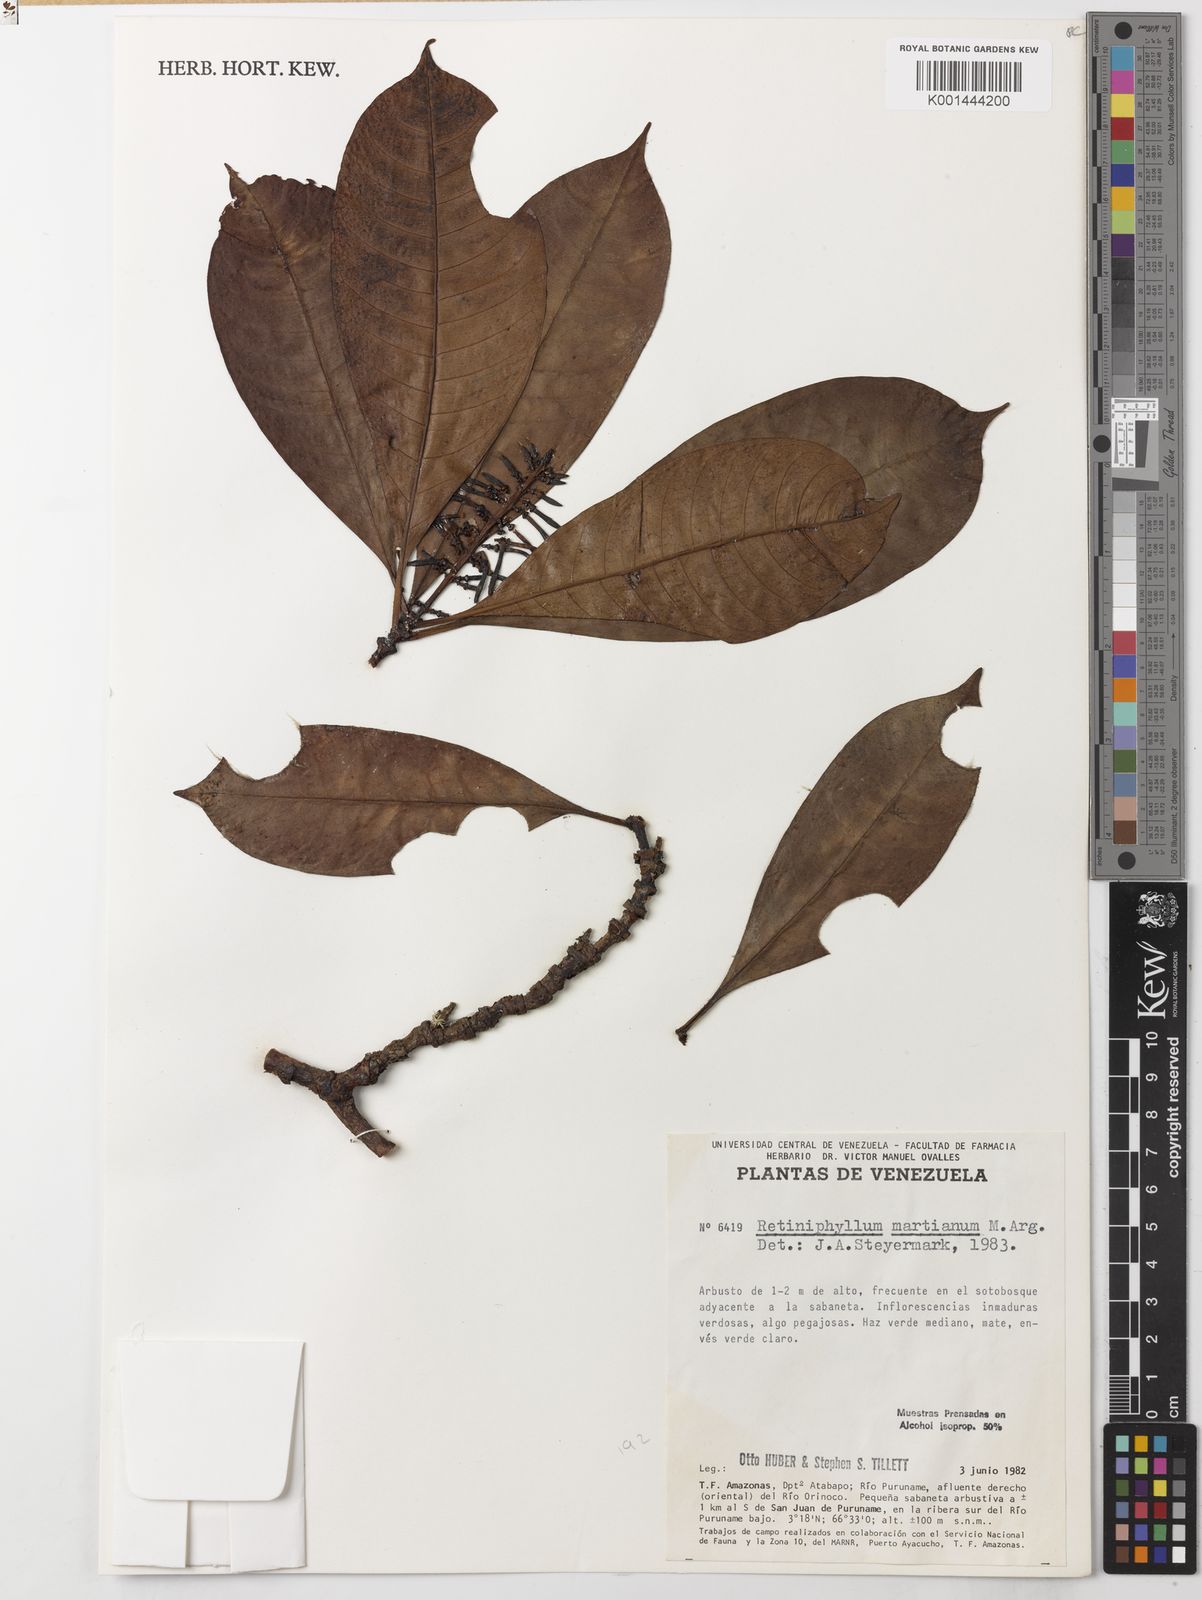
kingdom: Plantae
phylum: Tracheophyta
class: Magnoliopsida
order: Gentianales
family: Rubiaceae
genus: Retiniphyllum
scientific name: Retiniphyllum
